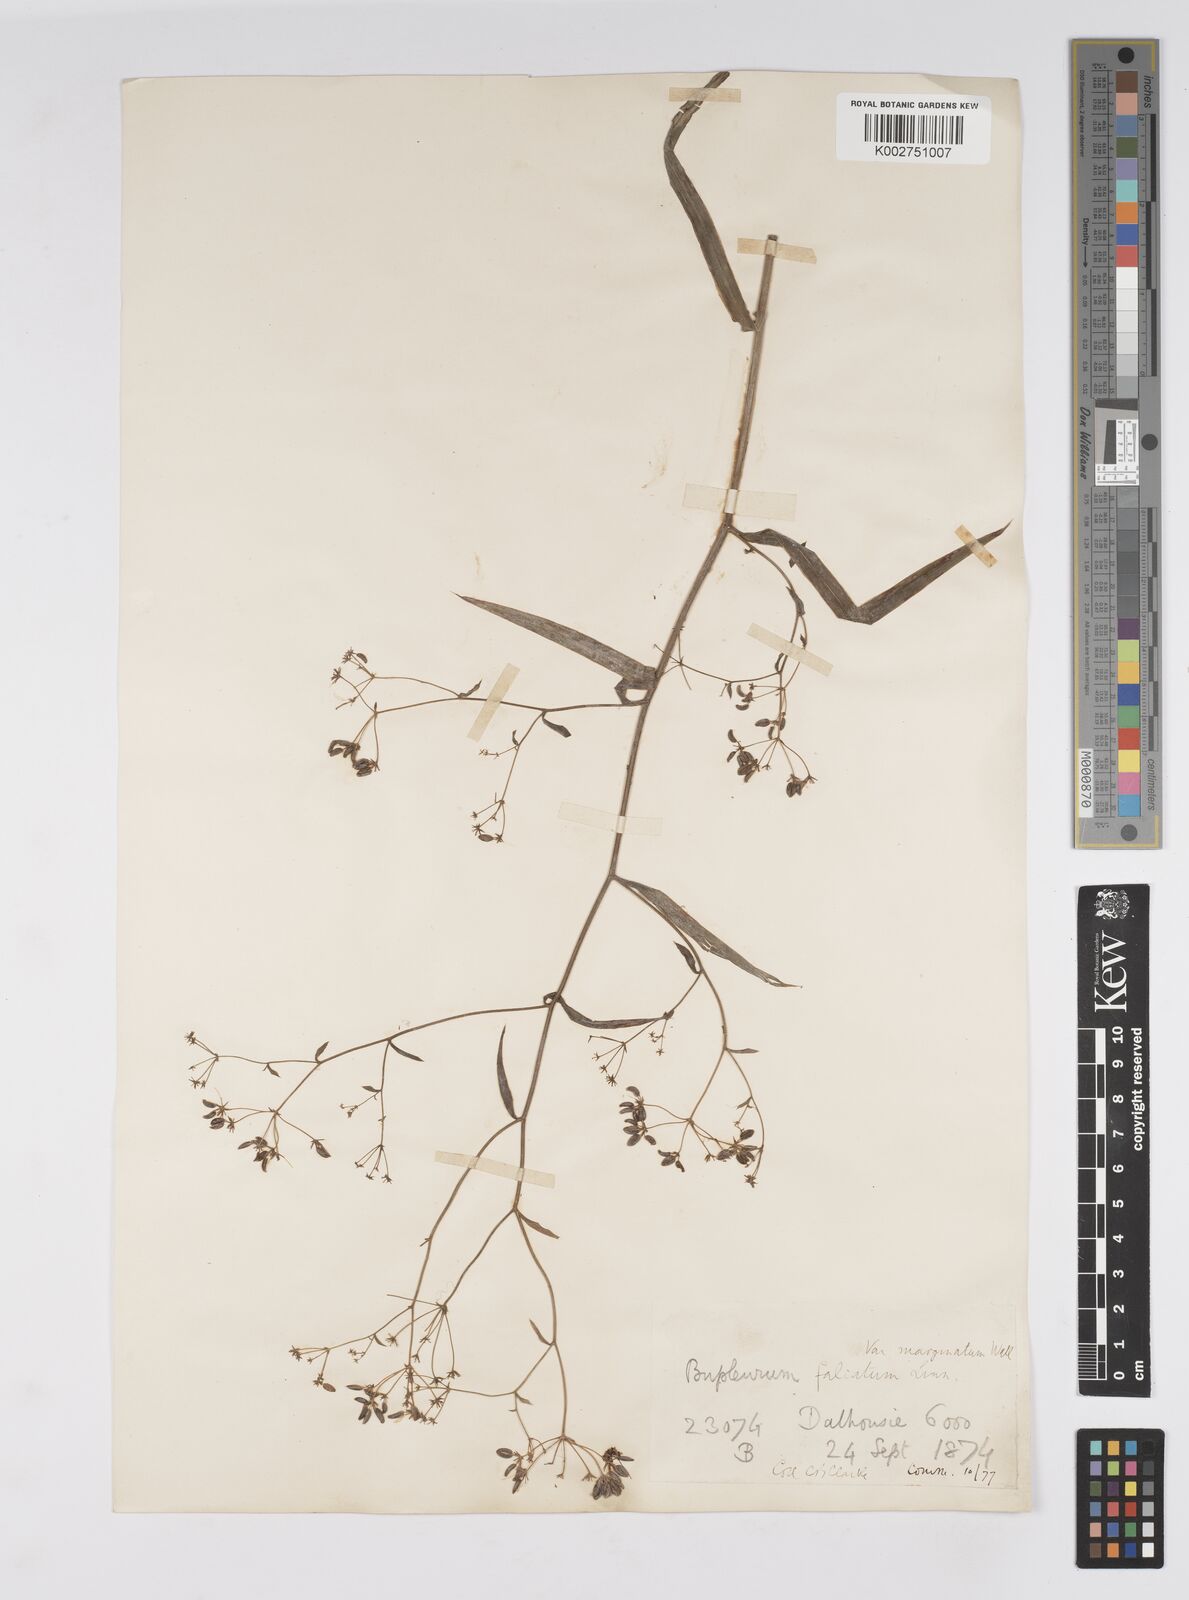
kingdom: Plantae
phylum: Tracheophyta
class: Magnoliopsida
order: Apiales
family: Apiaceae
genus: Bupleurum
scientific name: Bupleurum falcatum
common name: Sickle-leaved hare's-ear
